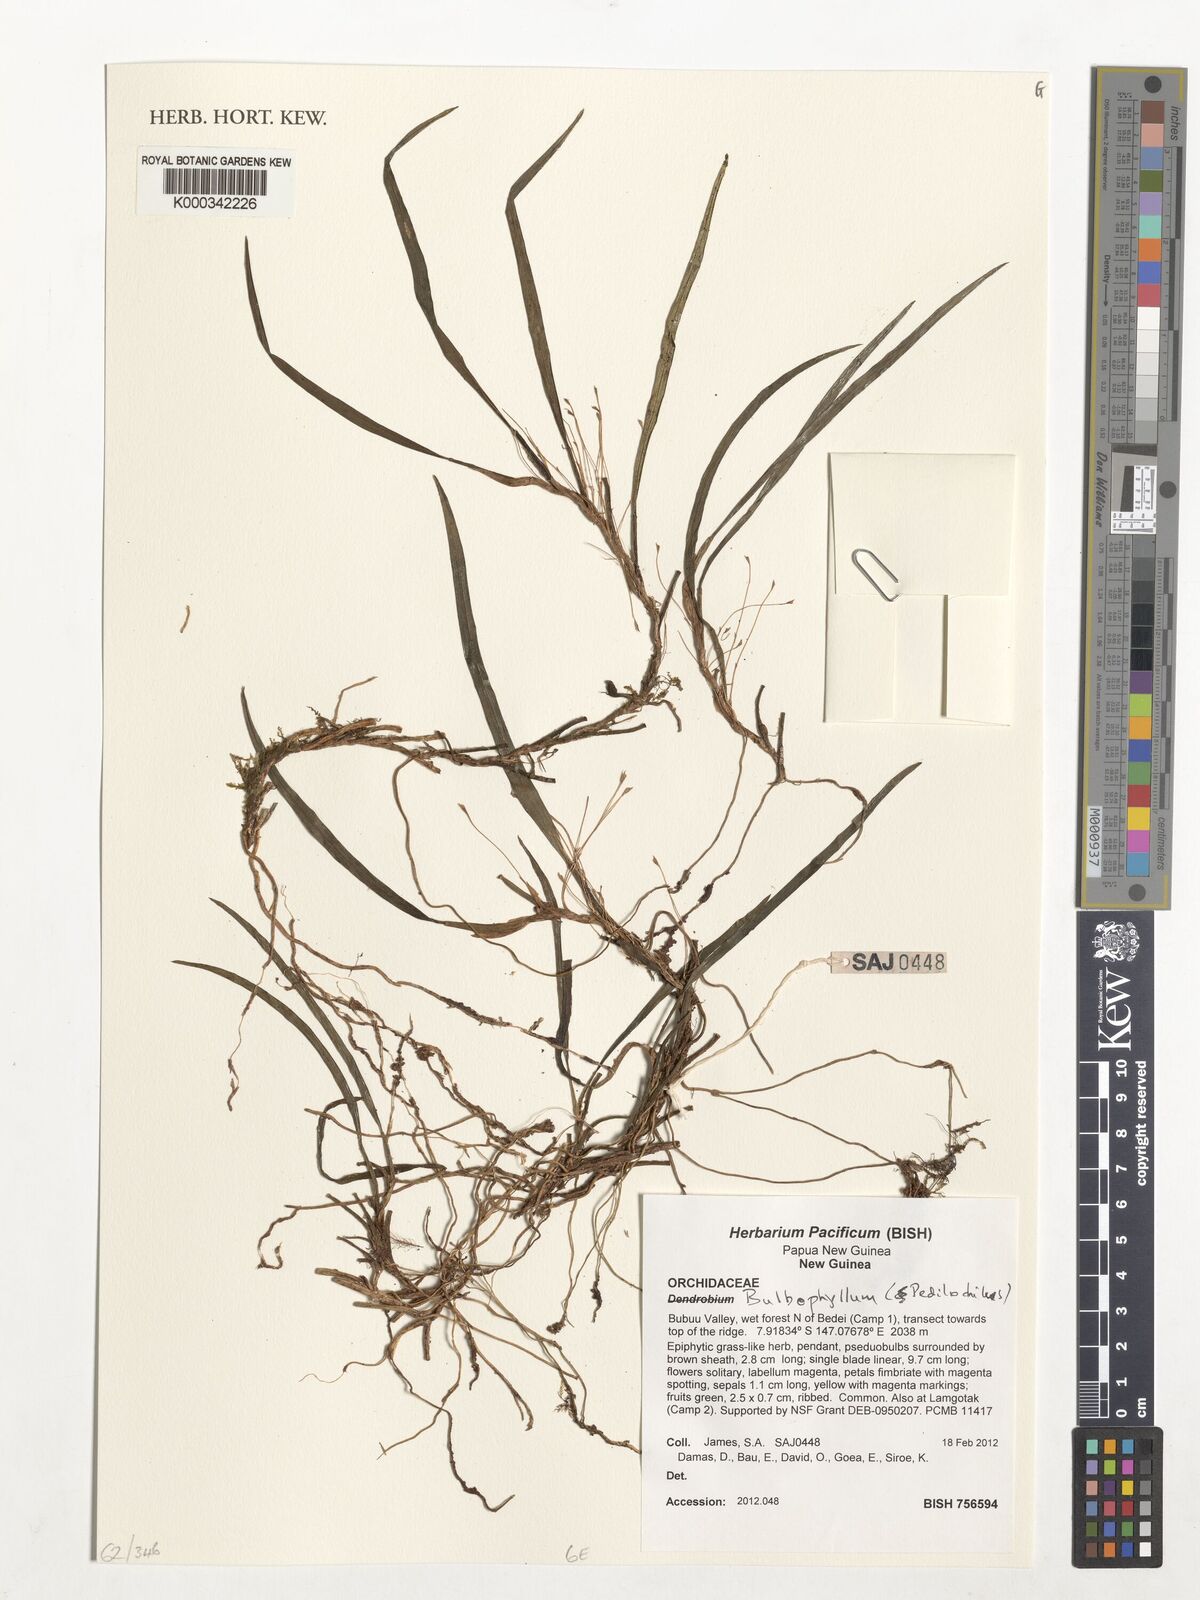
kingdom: Plantae
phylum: Tracheophyta
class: Liliopsida
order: Asparagales
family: Orchidaceae
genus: Bulbophyllum
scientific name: Bulbophyllum
